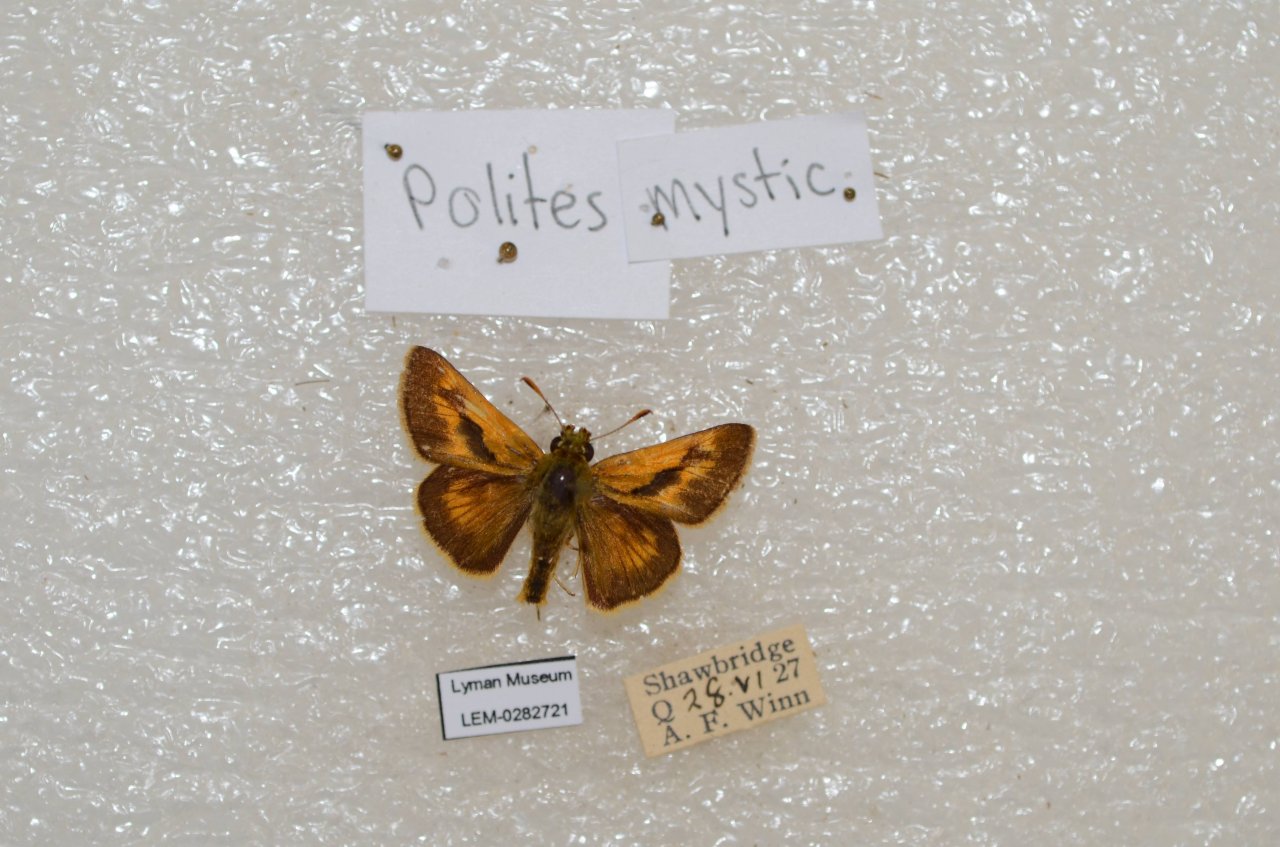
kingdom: Animalia
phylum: Arthropoda
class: Insecta
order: Lepidoptera
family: Hesperiidae
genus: Polites
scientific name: Polites
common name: Long Dash Skipper
